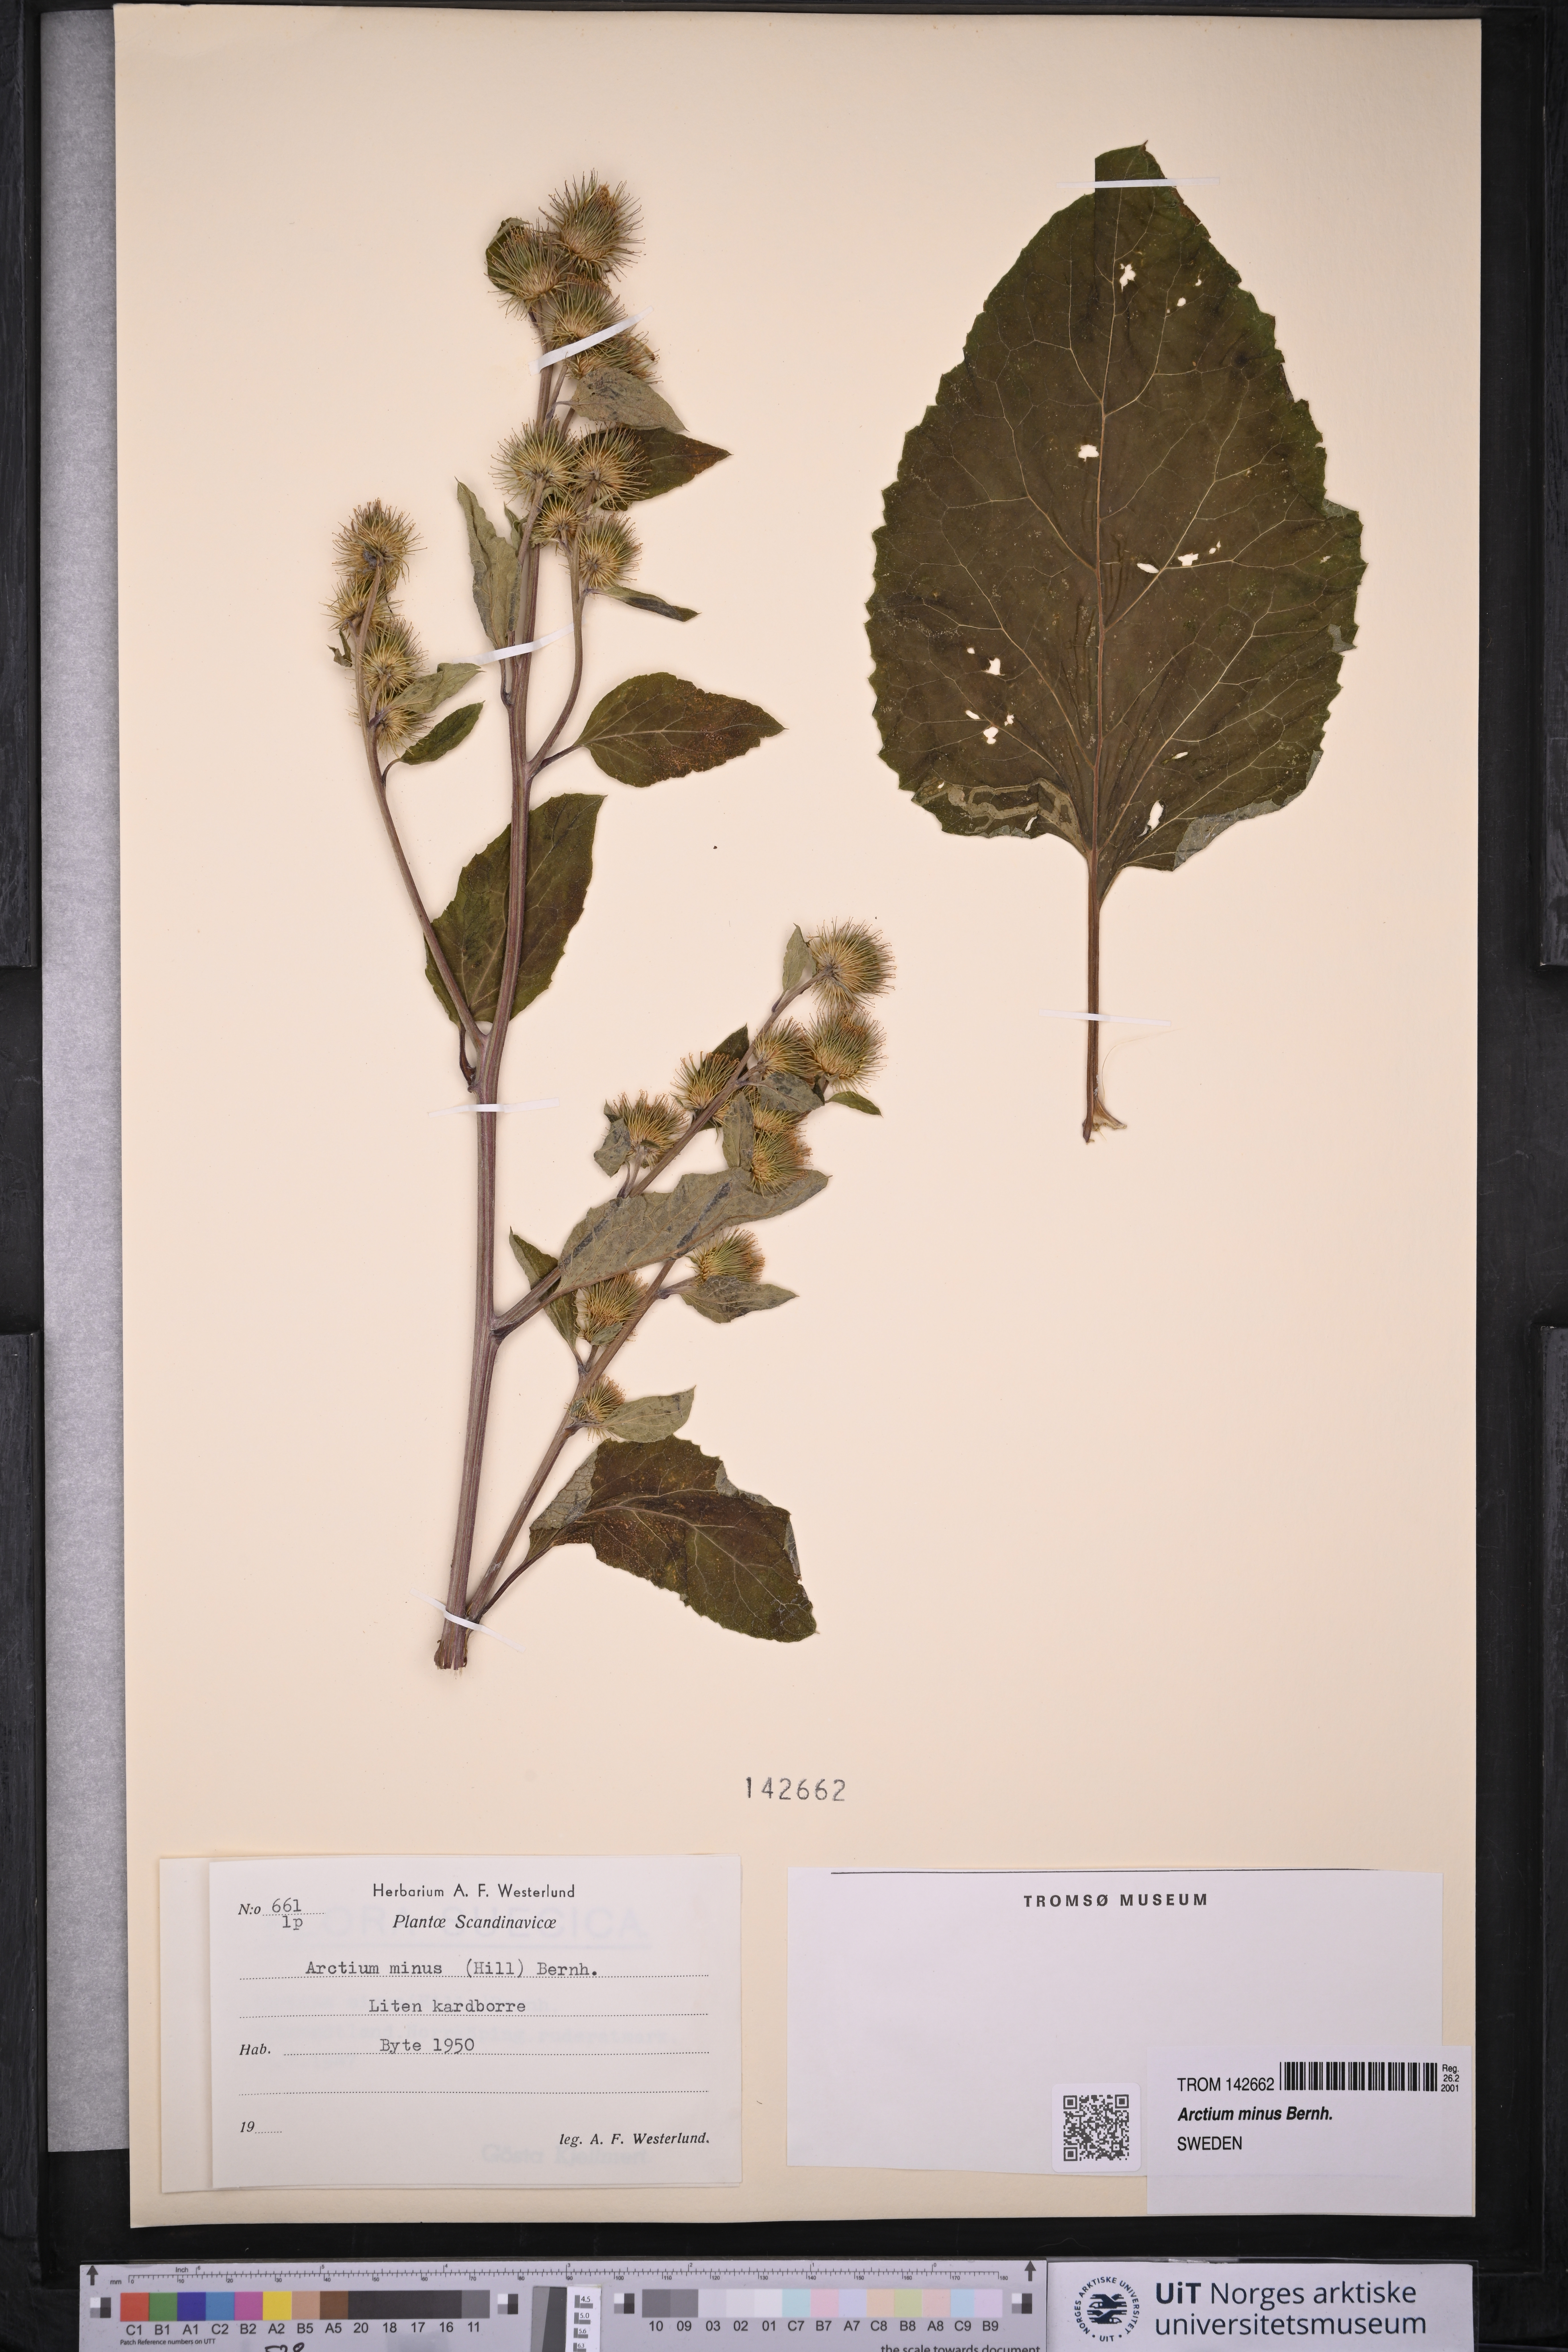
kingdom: Plantae
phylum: Tracheophyta
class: Magnoliopsida
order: Asterales
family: Asteraceae
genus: Arctium
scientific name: Arctium minus
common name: Lesser burdock
